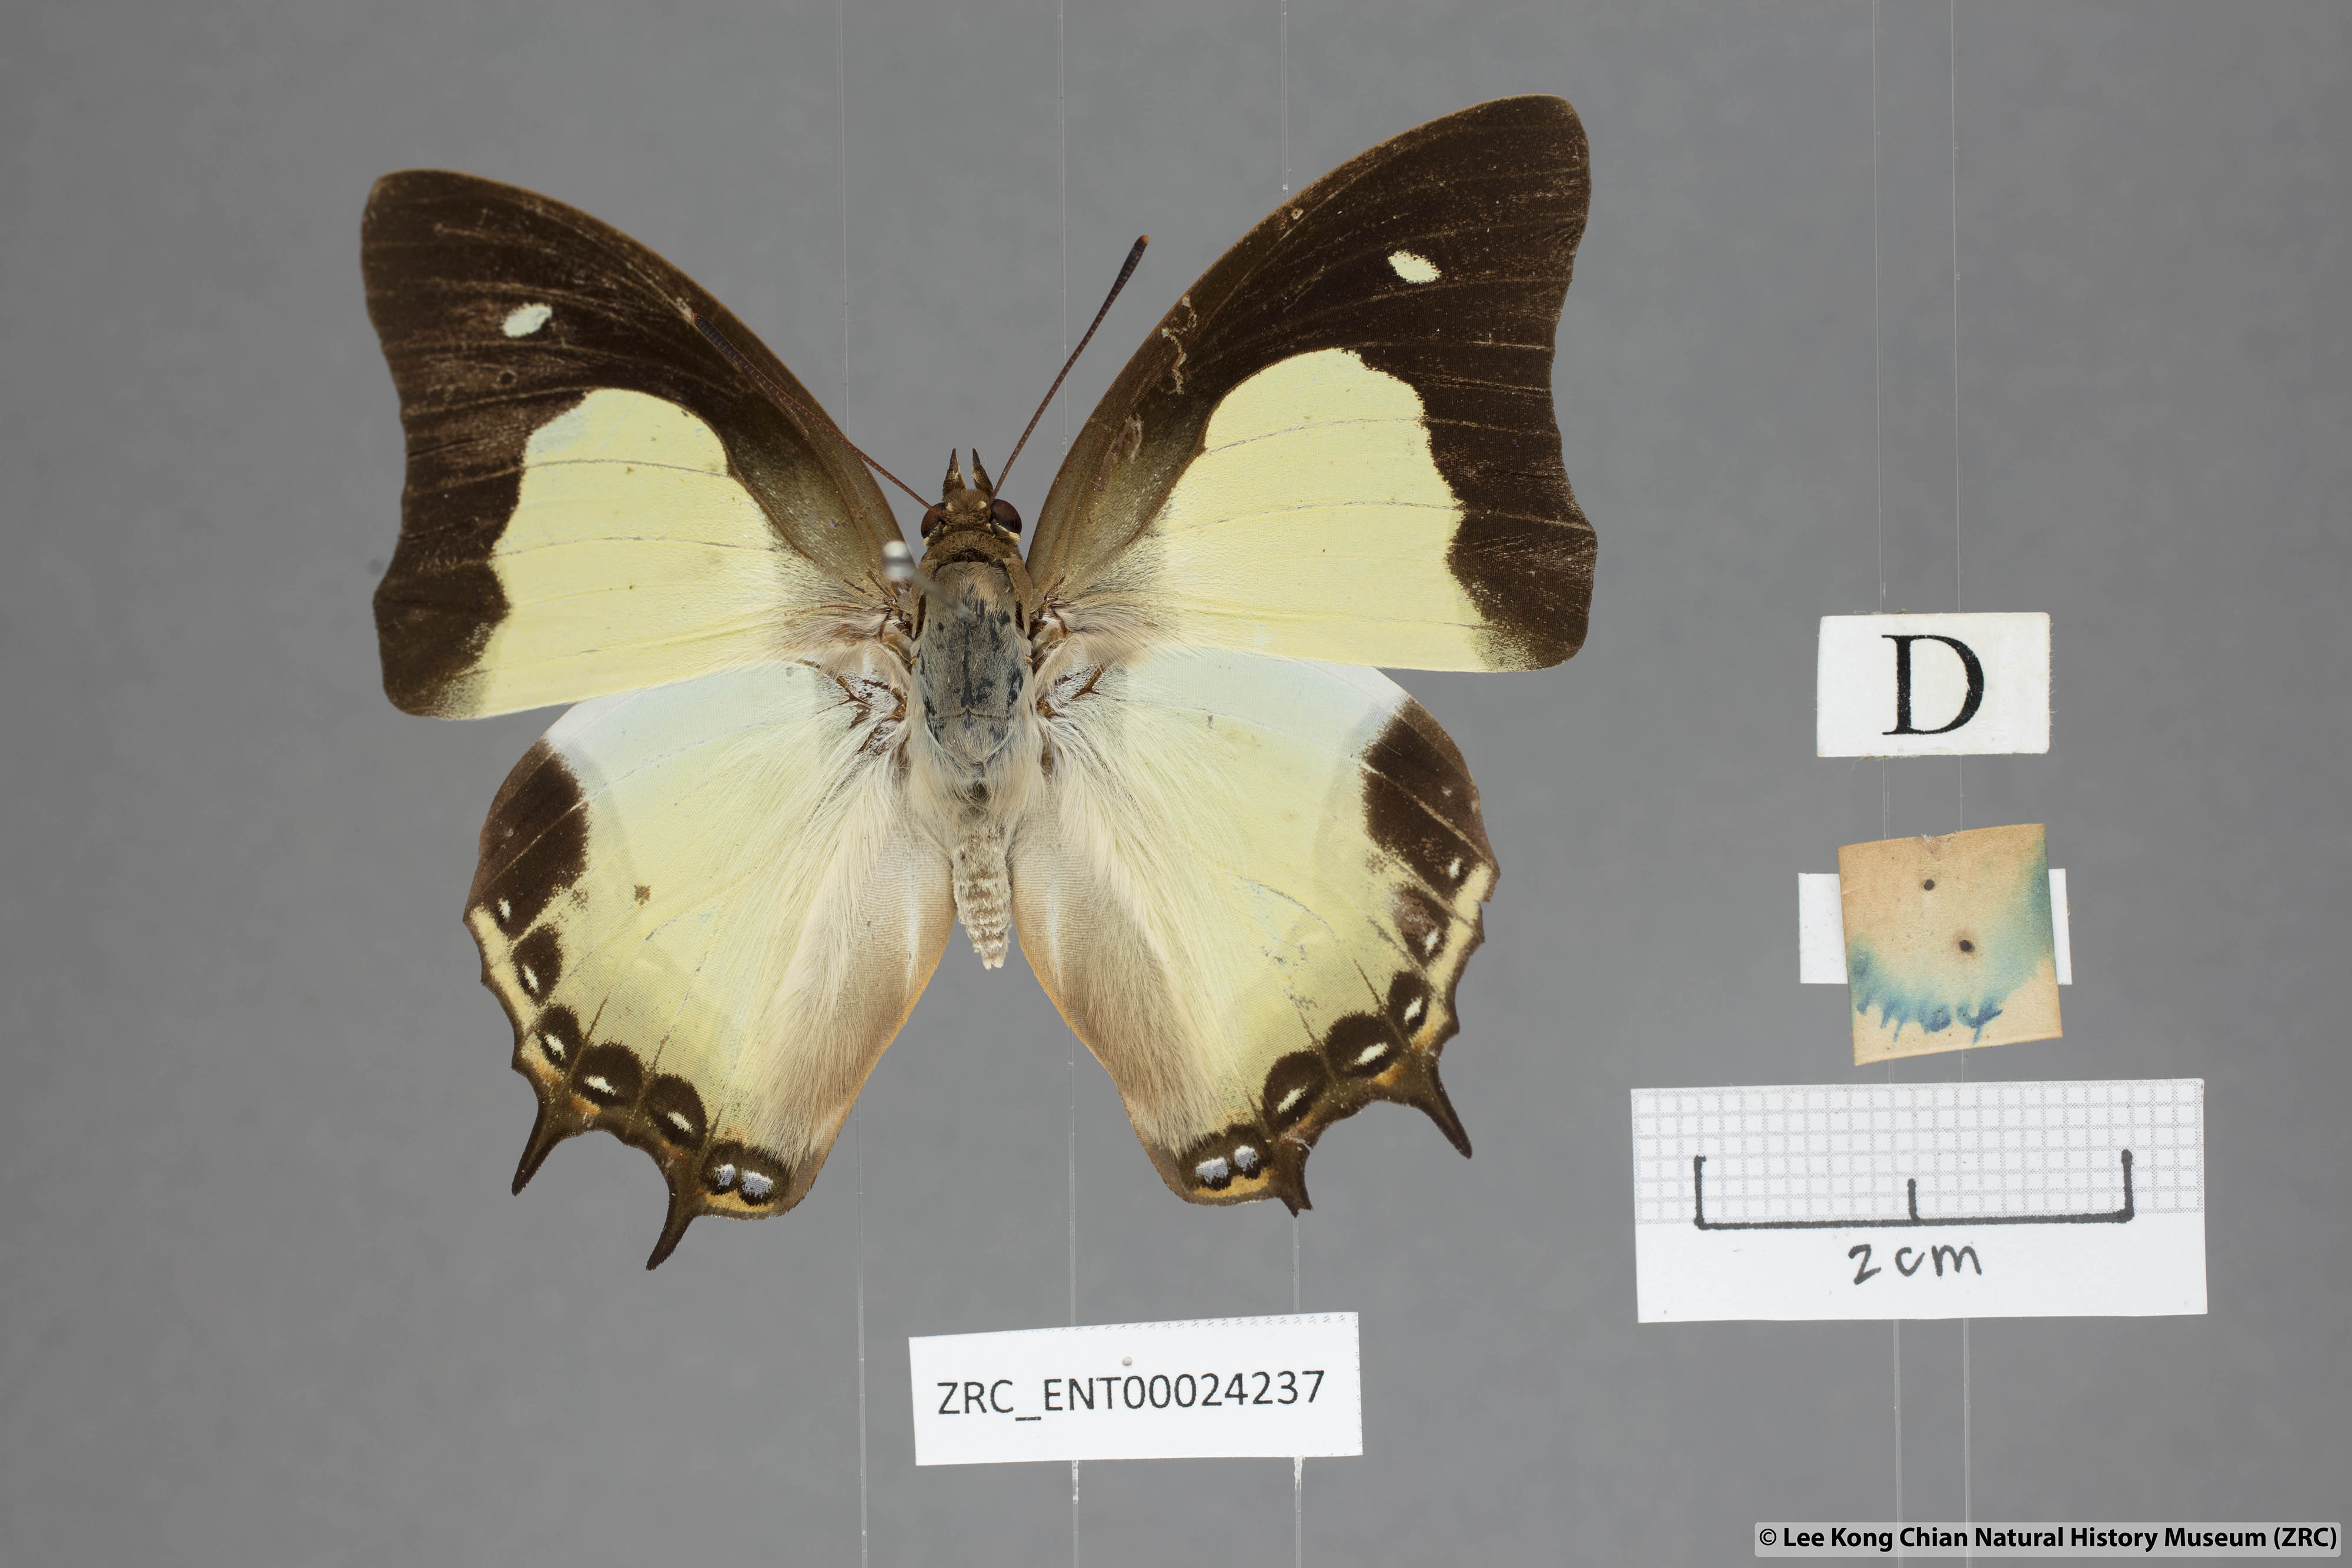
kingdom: Animalia
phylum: Arthropoda
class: Insecta
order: Lepidoptera
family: Nymphalidae
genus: Polyura
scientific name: Polyura moori
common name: Malayan nawab
